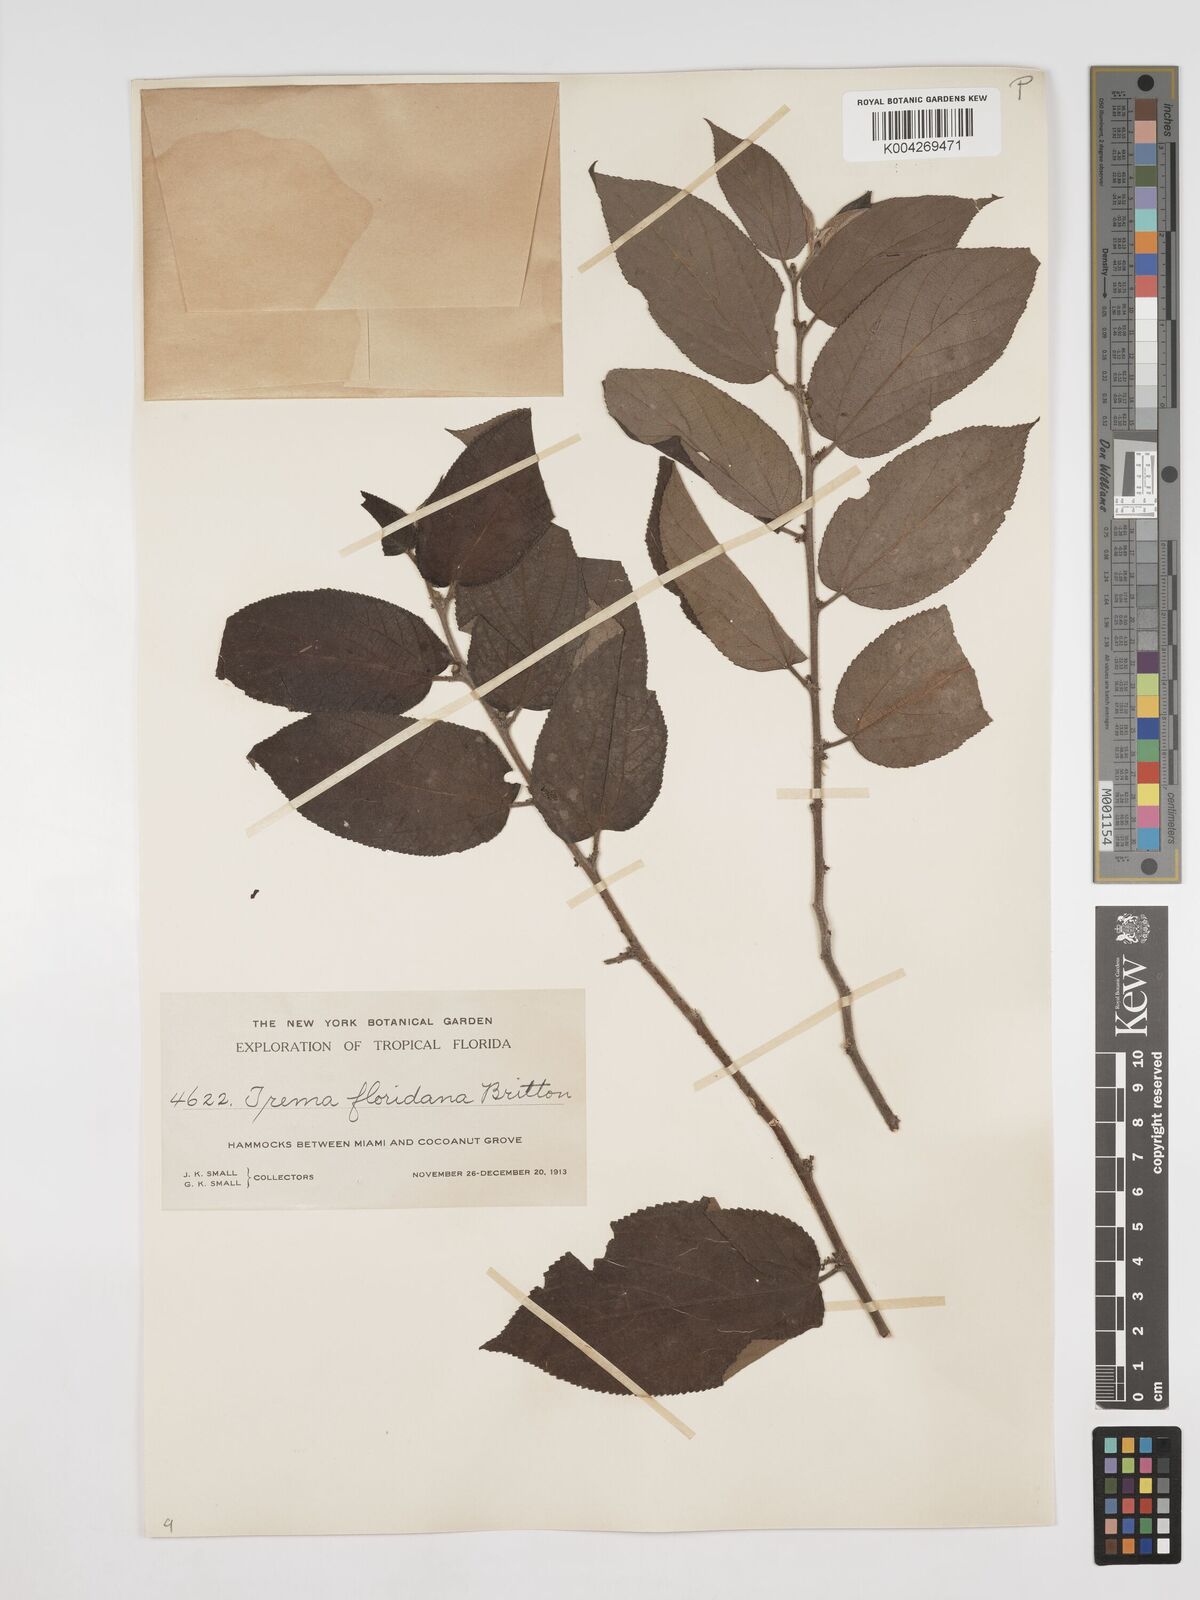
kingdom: Plantae
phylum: Tracheophyta
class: Magnoliopsida
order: Rosales
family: Cannabaceae
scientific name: Cannabaceae
